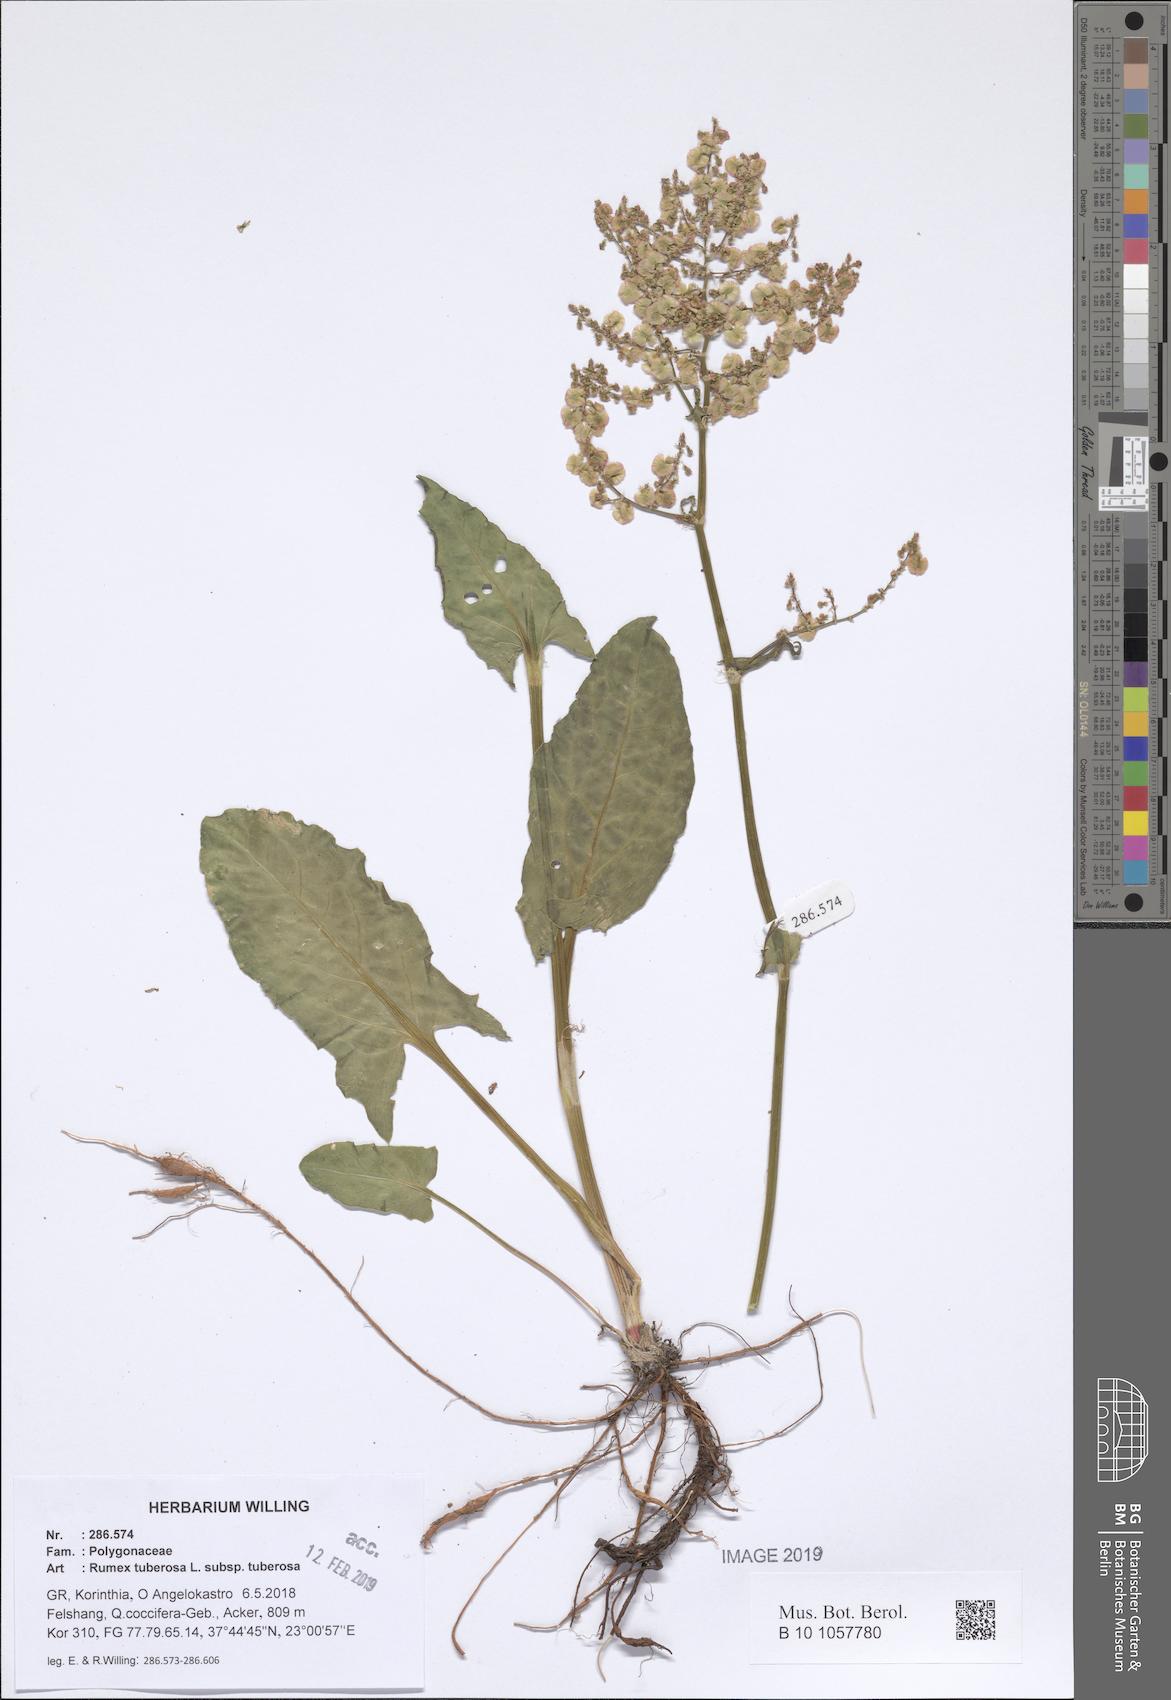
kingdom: Plantae
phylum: Tracheophyta
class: Magnoliopsida
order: Caryophyllales
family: Polygonaceae
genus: Rumex
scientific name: Rumex tuberosus
